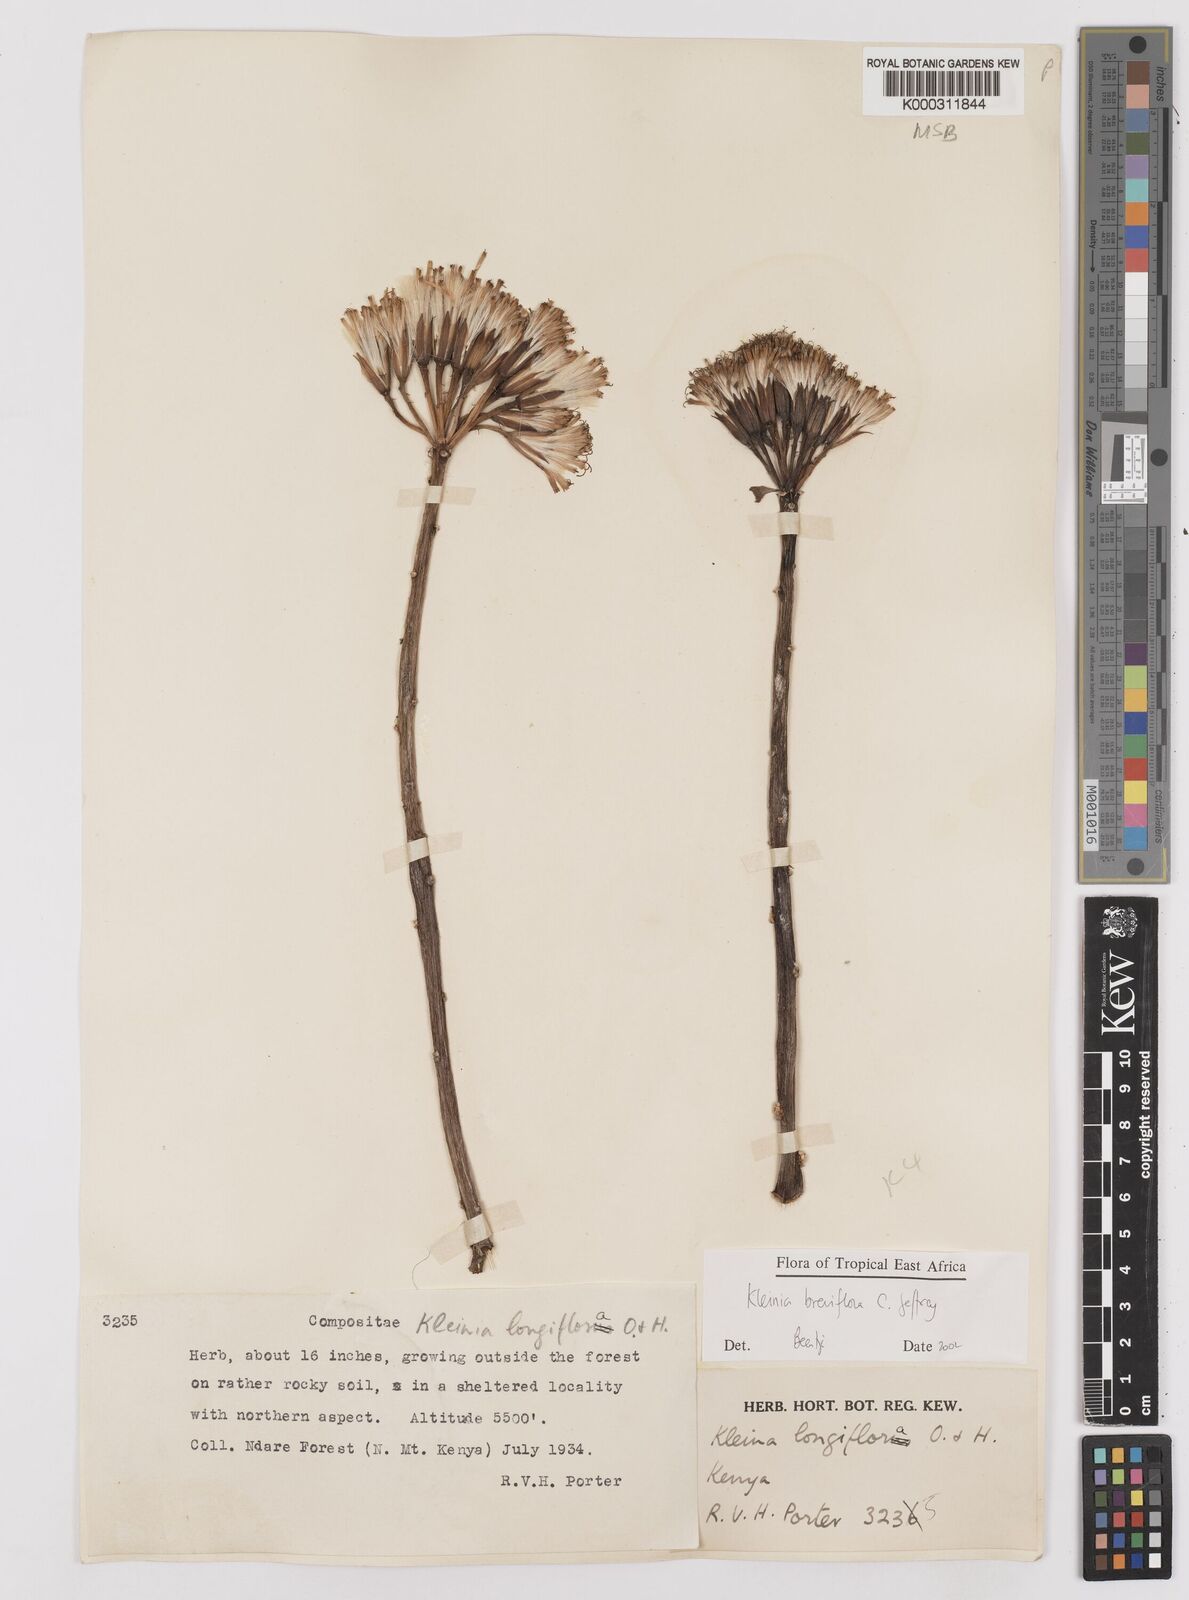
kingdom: Plantae
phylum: Tracheophyta
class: Magnoliopsida
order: Asterales
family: Asteraceae
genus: Kleinia
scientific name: Kleinia polycotoma
